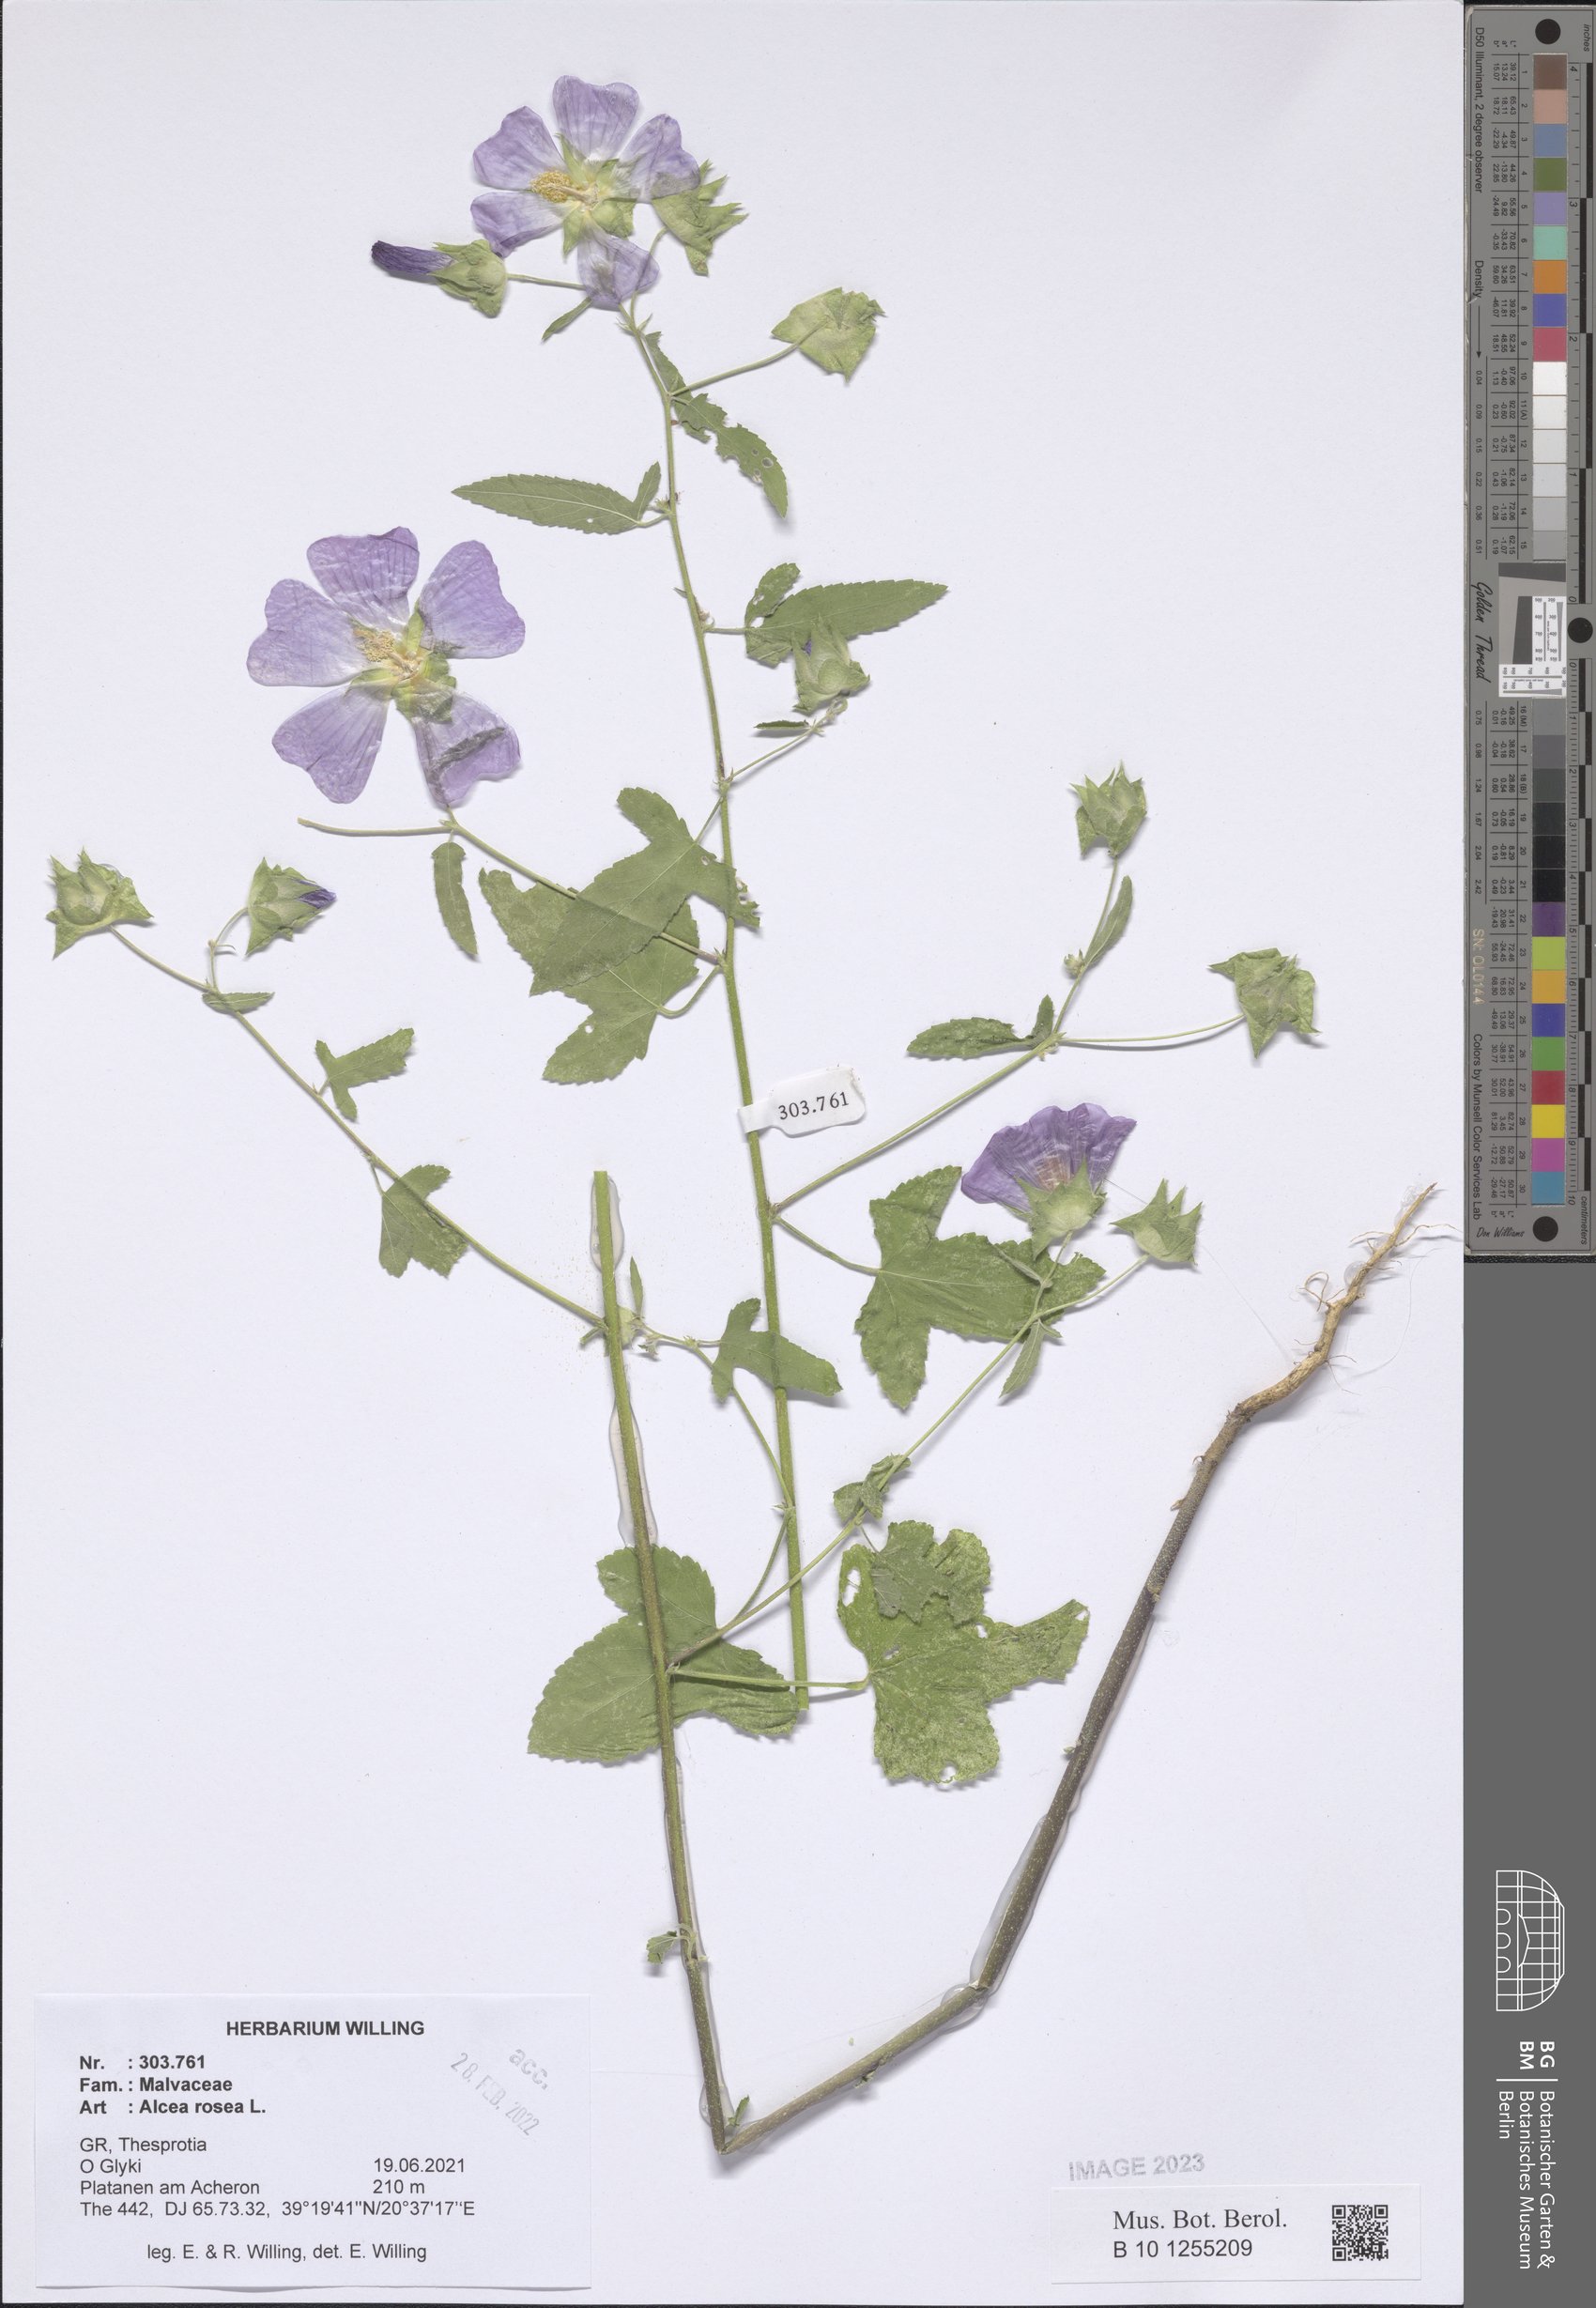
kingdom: Plantae
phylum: Tracheophyta
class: Magnoliopsida
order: Malvales
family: Malvaceae
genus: Alcea
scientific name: Alcea rosea
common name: Hollyhock
